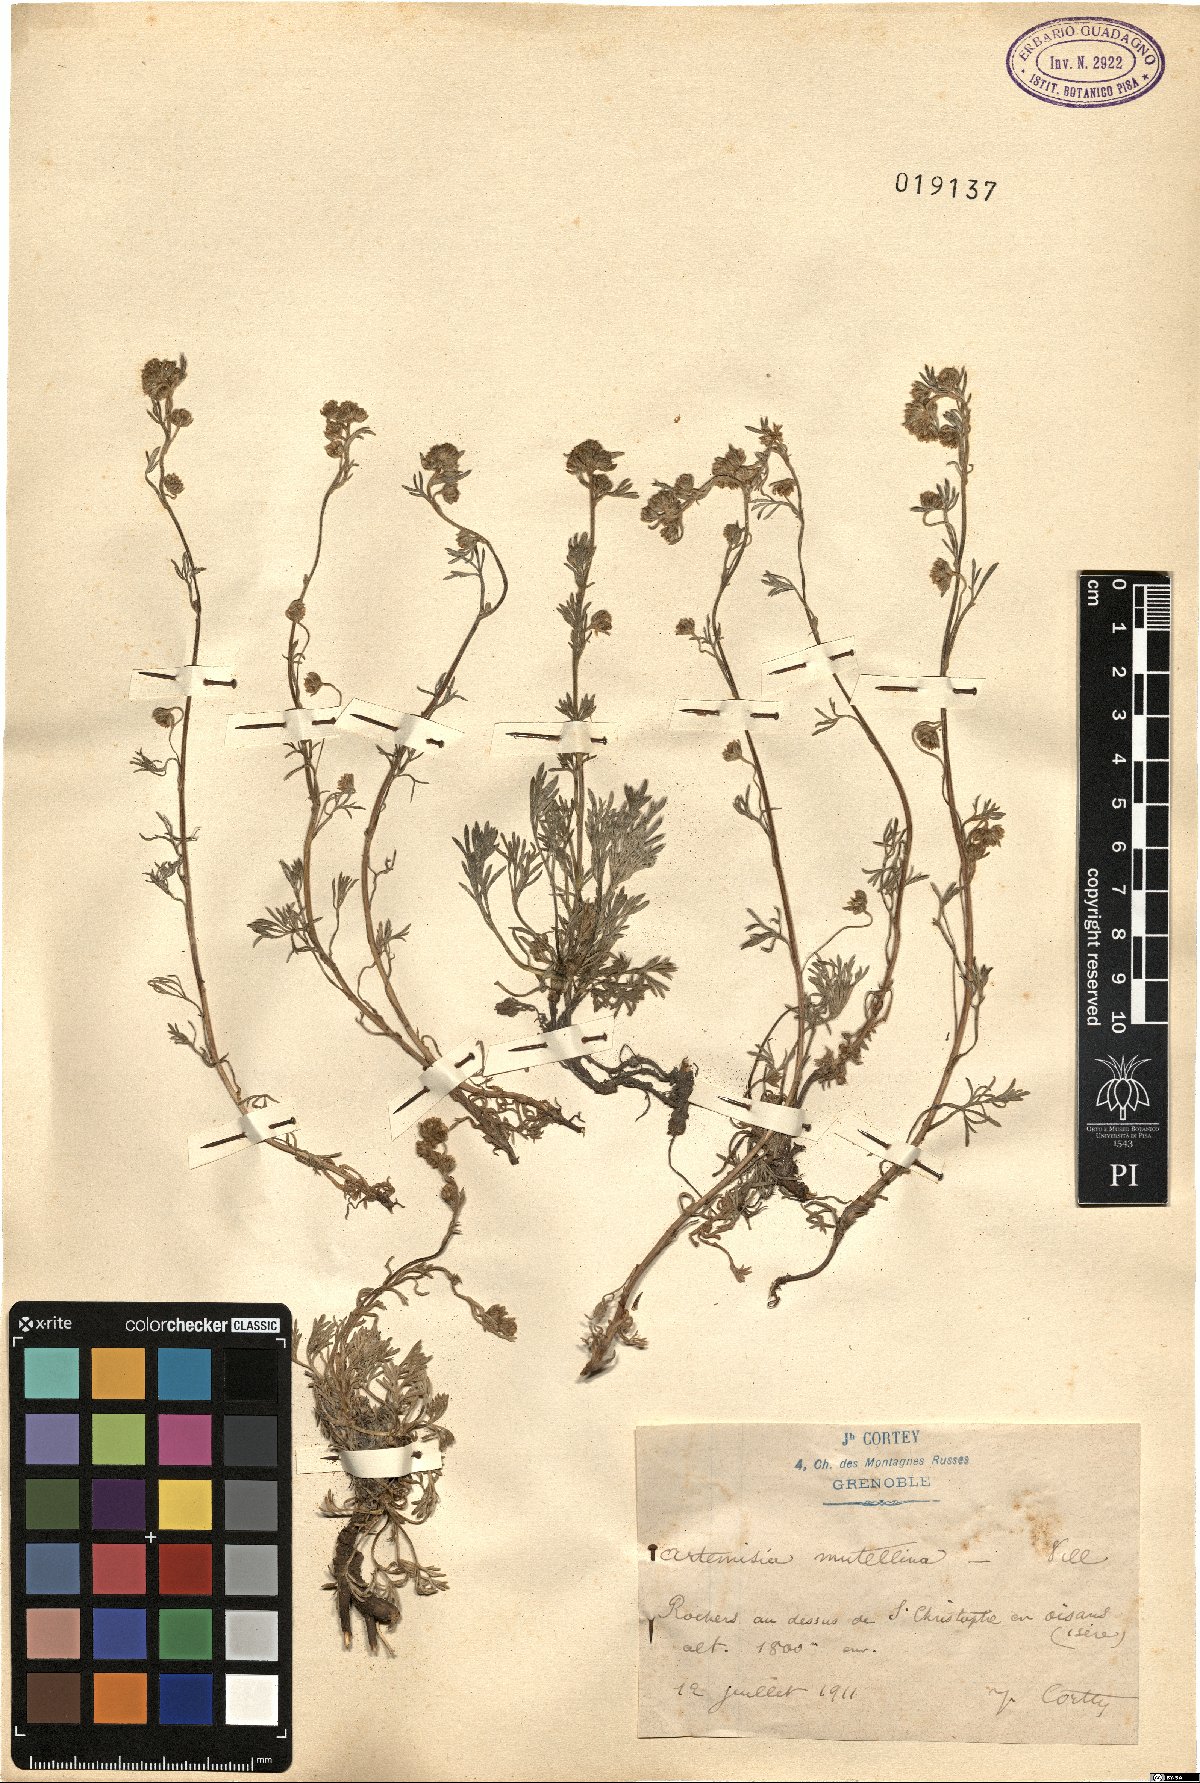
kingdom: Plantae
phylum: Tracheophyta
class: Magnoliopsida
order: Asterales
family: Asteraceae
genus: Artemisia
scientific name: Artemisia mutellina
